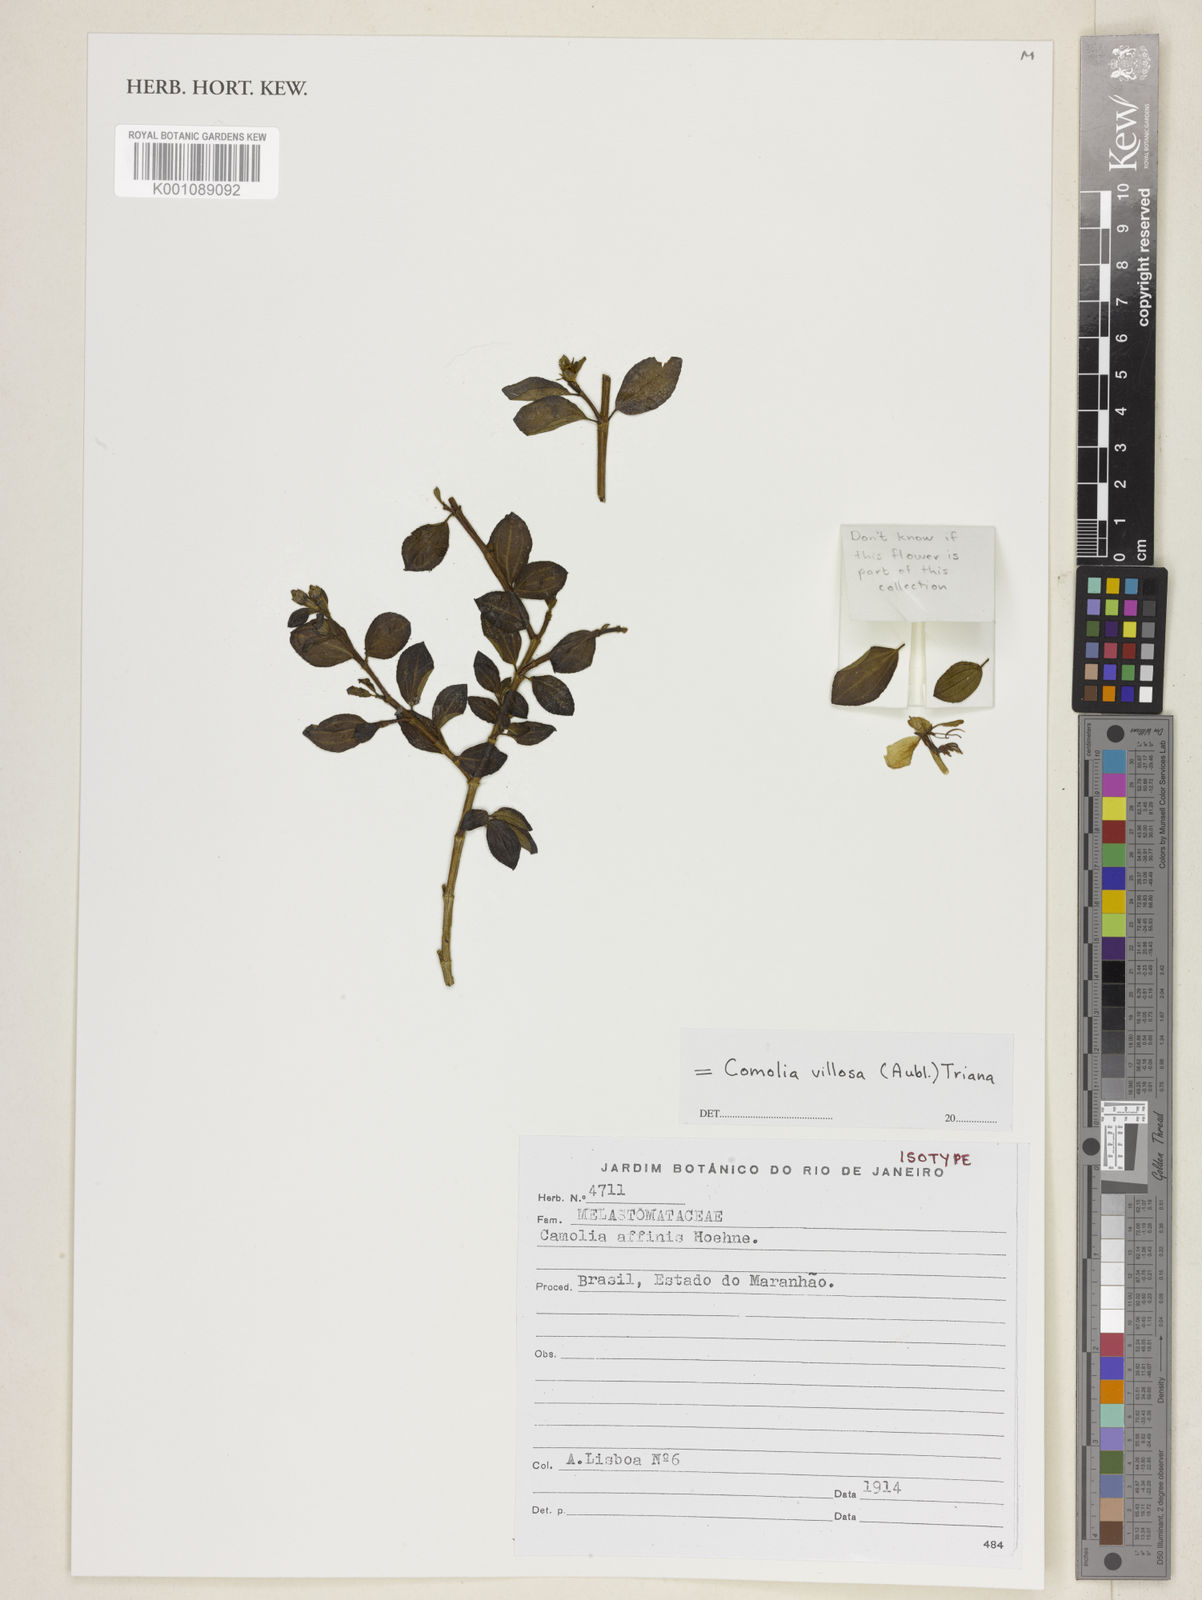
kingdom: Plantae
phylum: Tracheophyta
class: Magnoliopsida
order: Myrtales
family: Melastomataceae
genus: Comolia
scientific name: Comolia villosa
